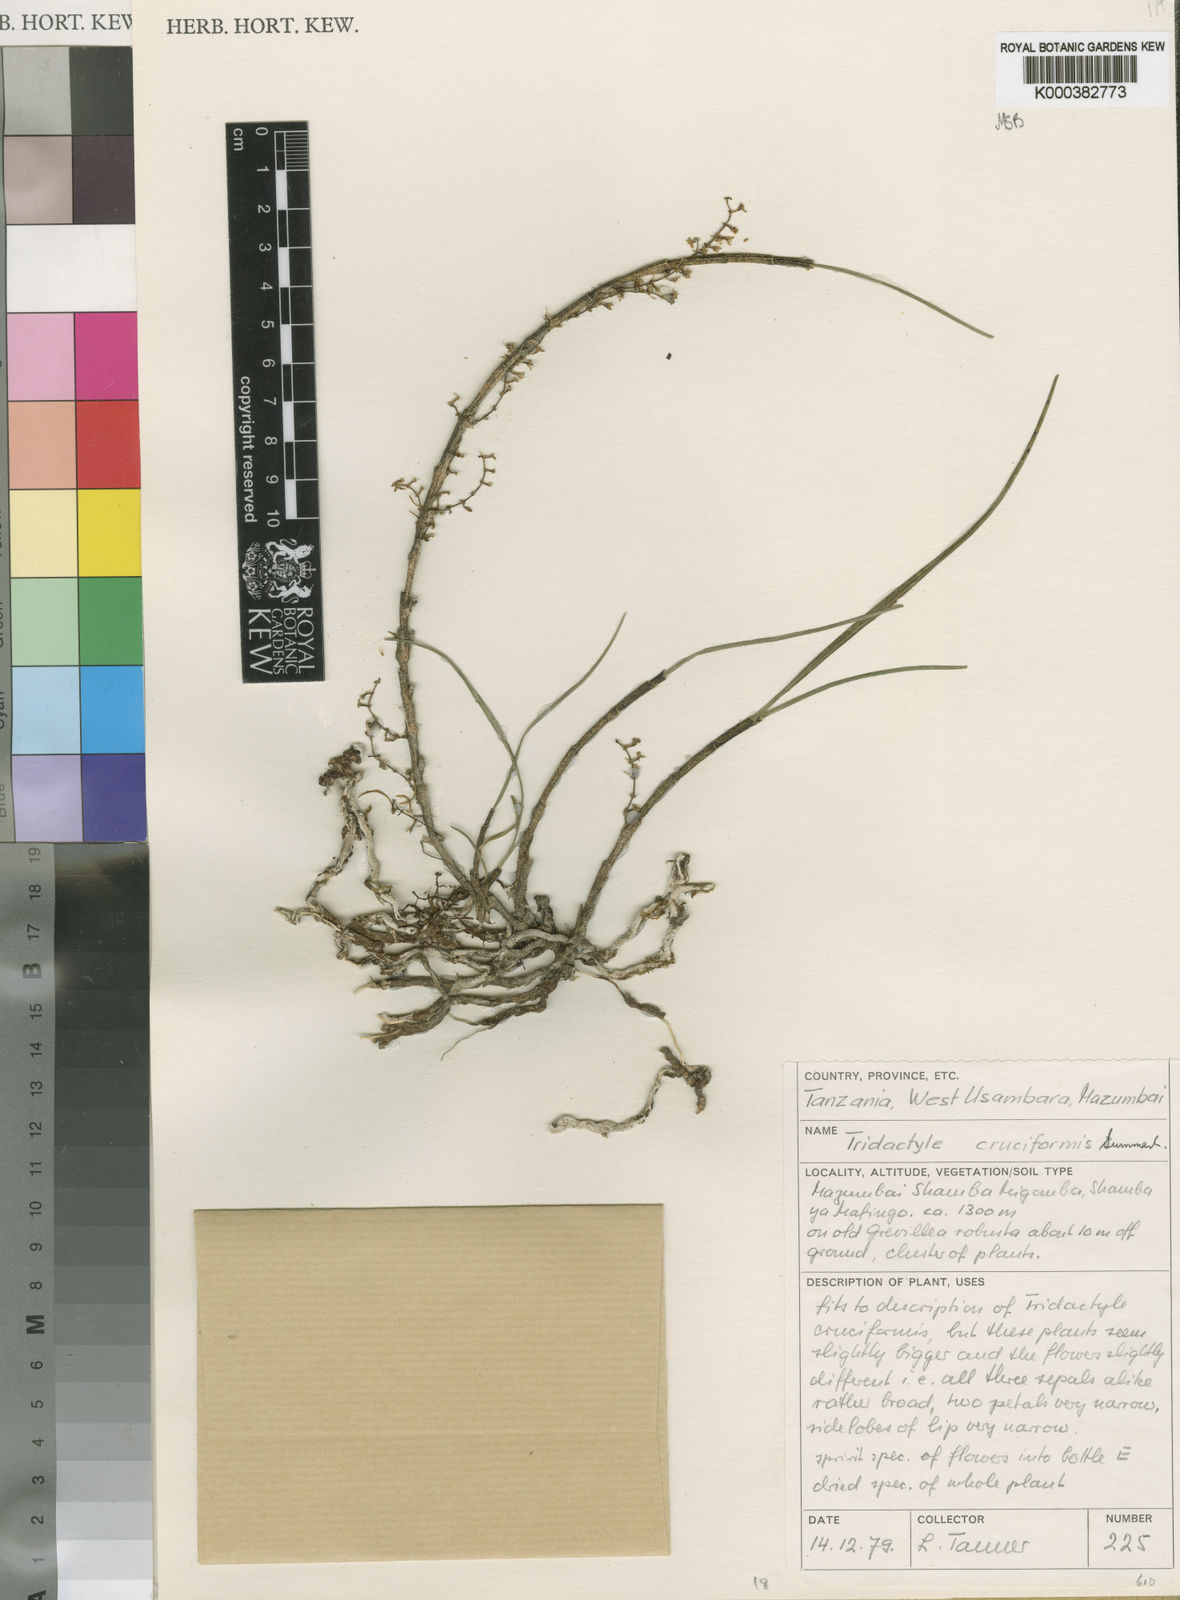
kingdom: Plantae
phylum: Tracheophyta
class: Liliopsida
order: Asparagales
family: Orchidaceae
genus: Tridactyle
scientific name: Tridactyle cruciformis
